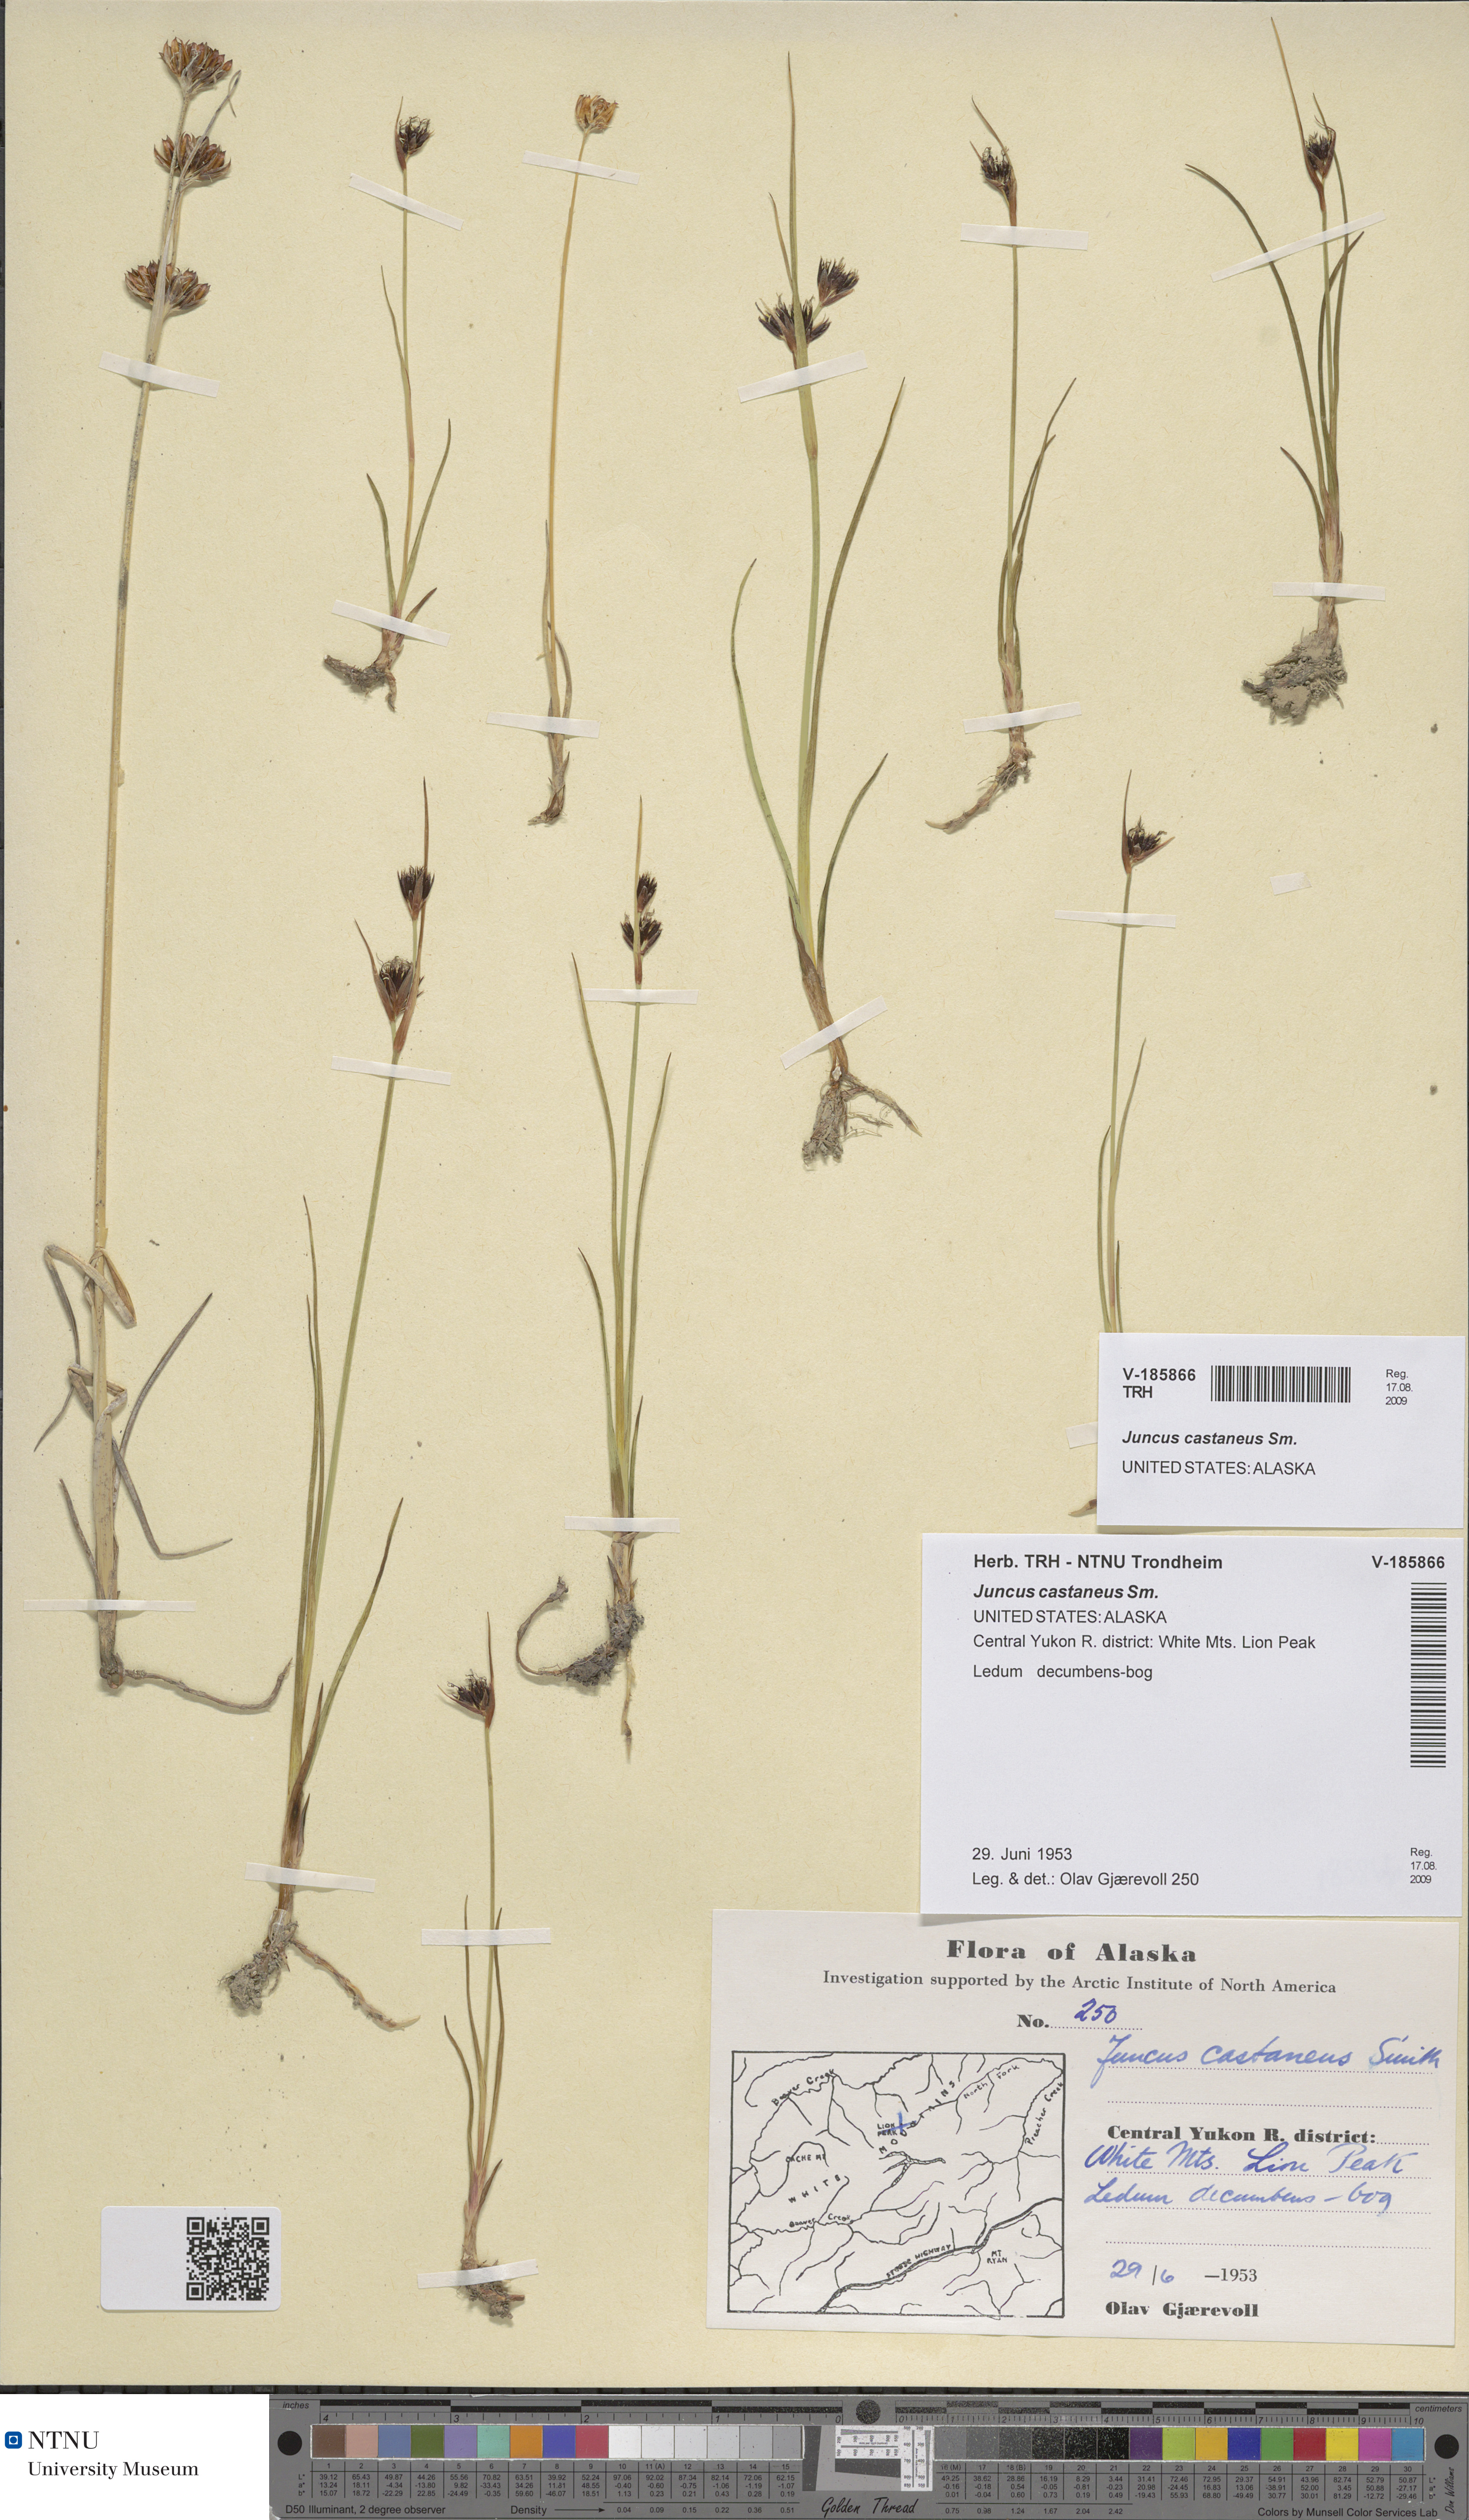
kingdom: Plantae
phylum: Tracheophyta
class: Liliopsida
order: Poales
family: Juncaceae
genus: Juncus
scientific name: Juncus castaneus
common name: Chestnut rush
